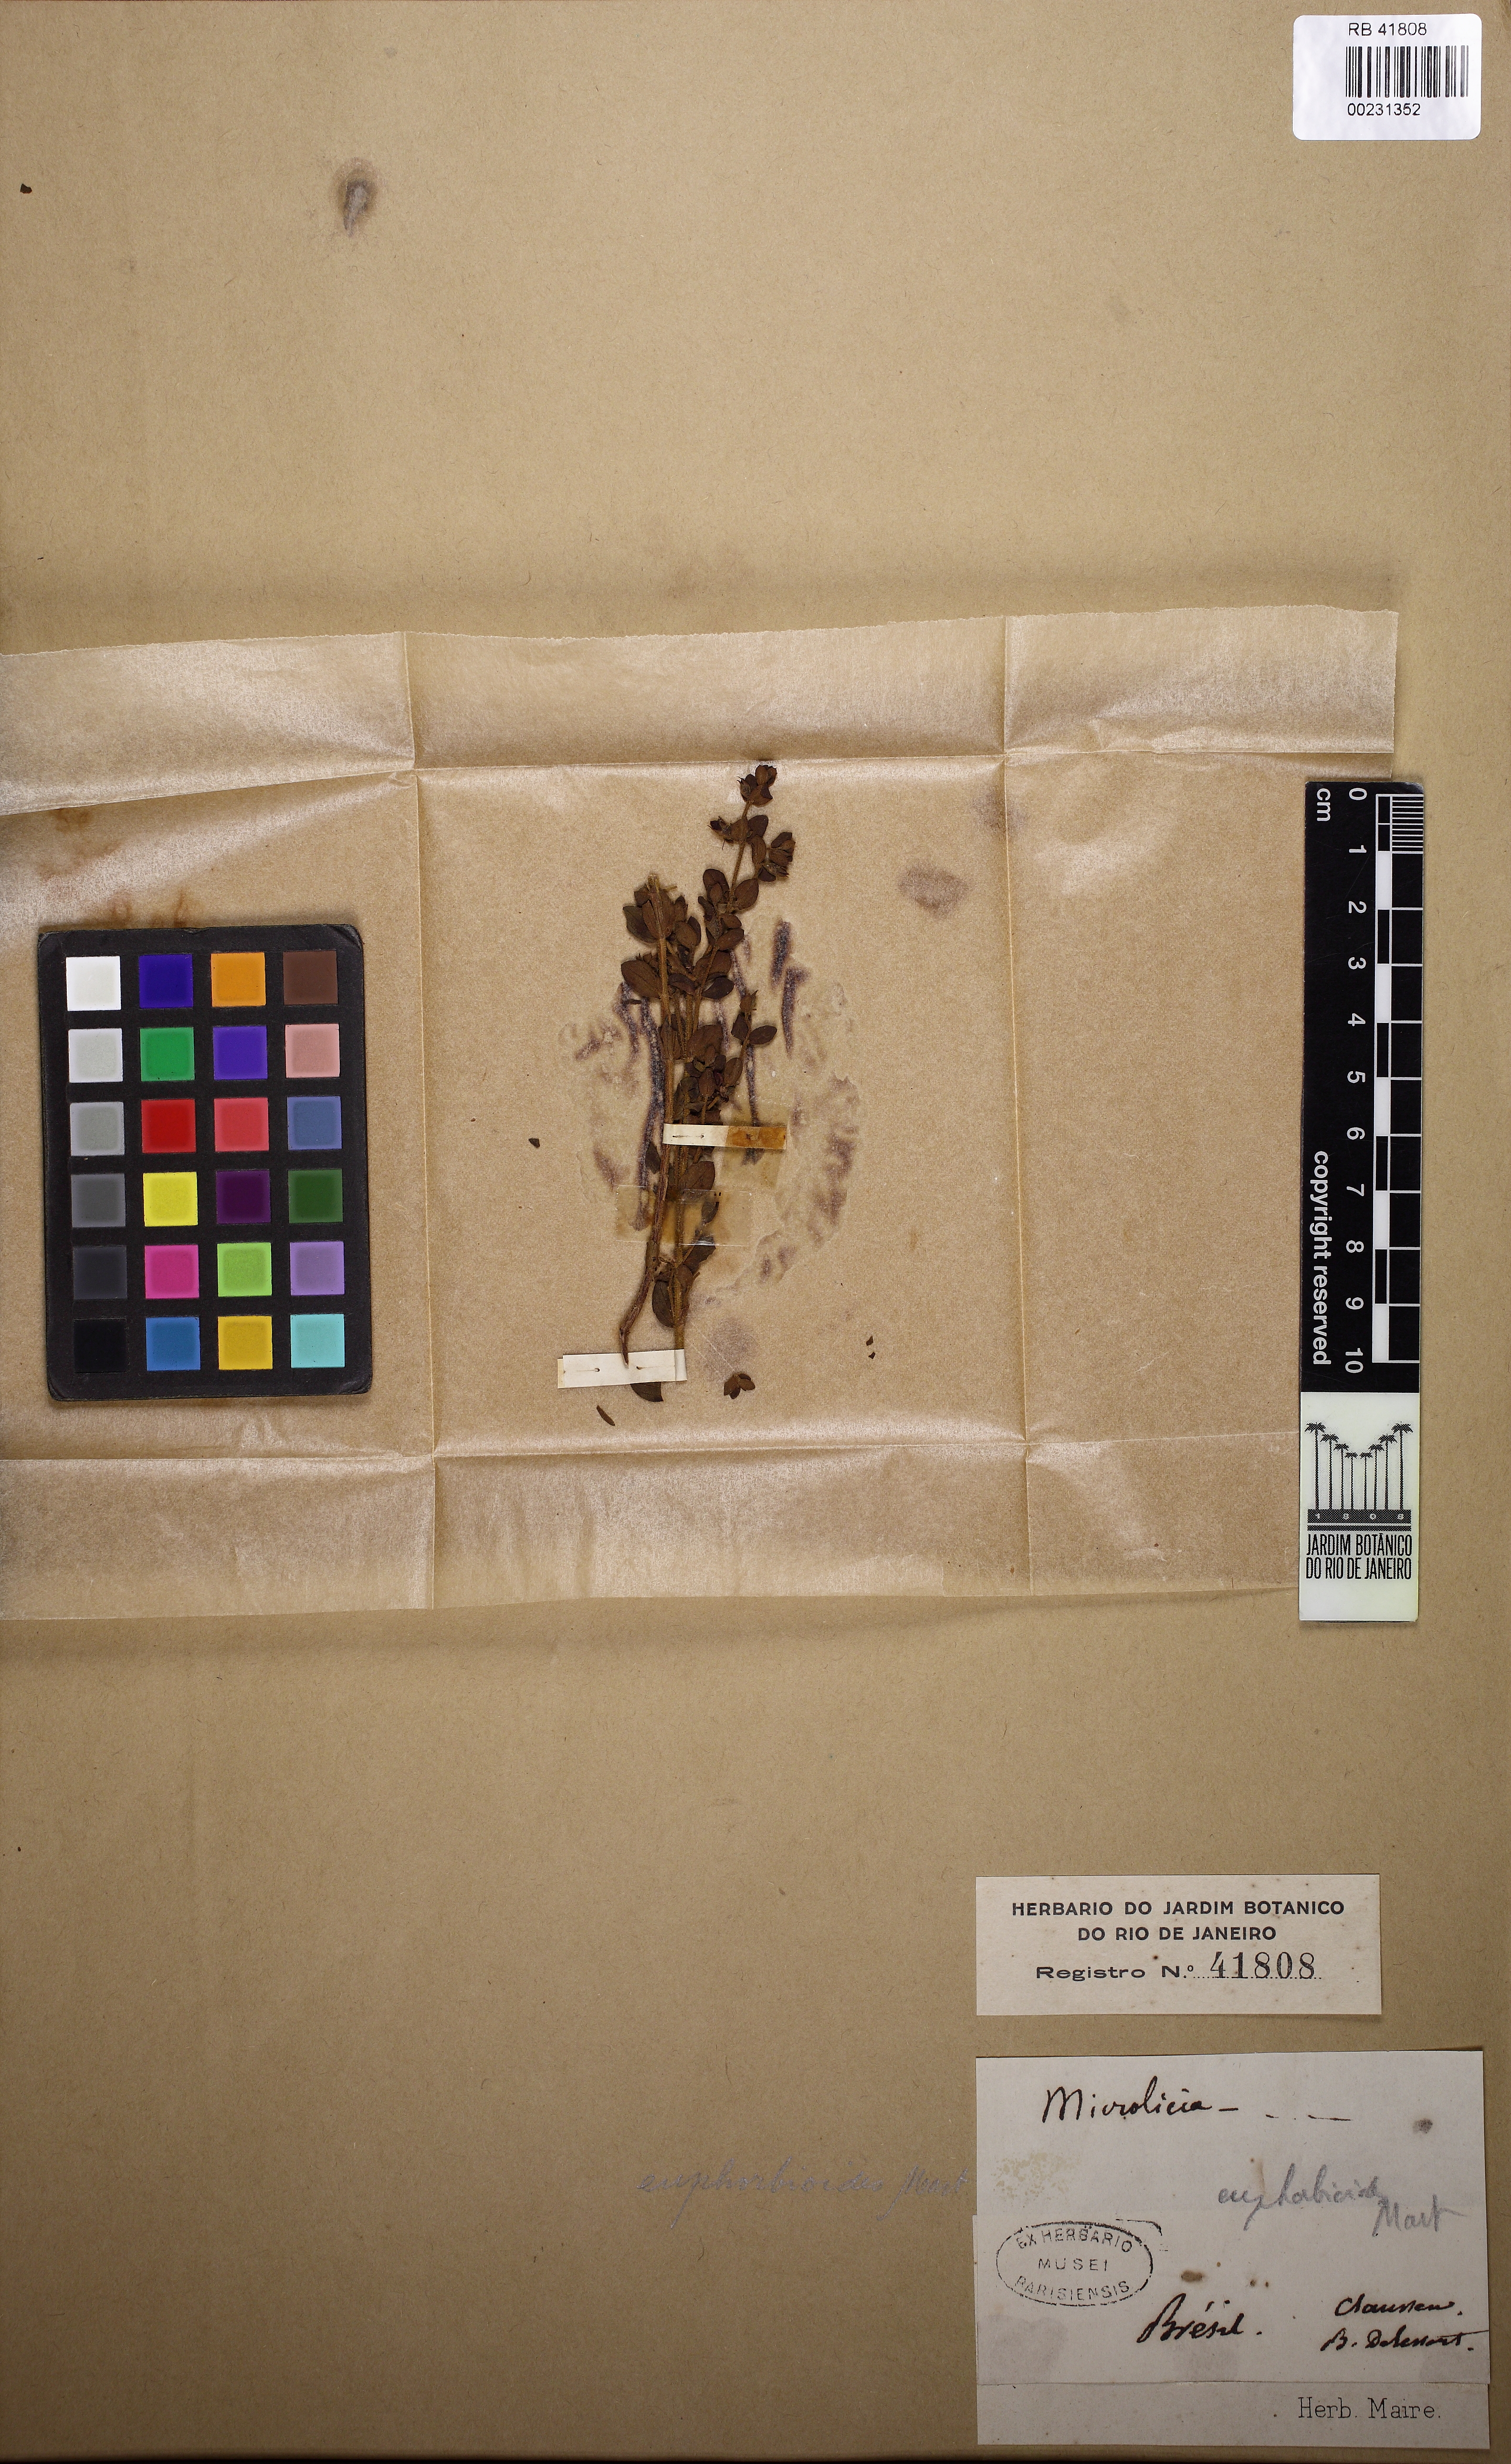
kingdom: Plantae
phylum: Tracheophyta
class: Magnoliopsida
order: Myrtales
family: Melastomataceae
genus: Microlicia
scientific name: Microlicia fulva
